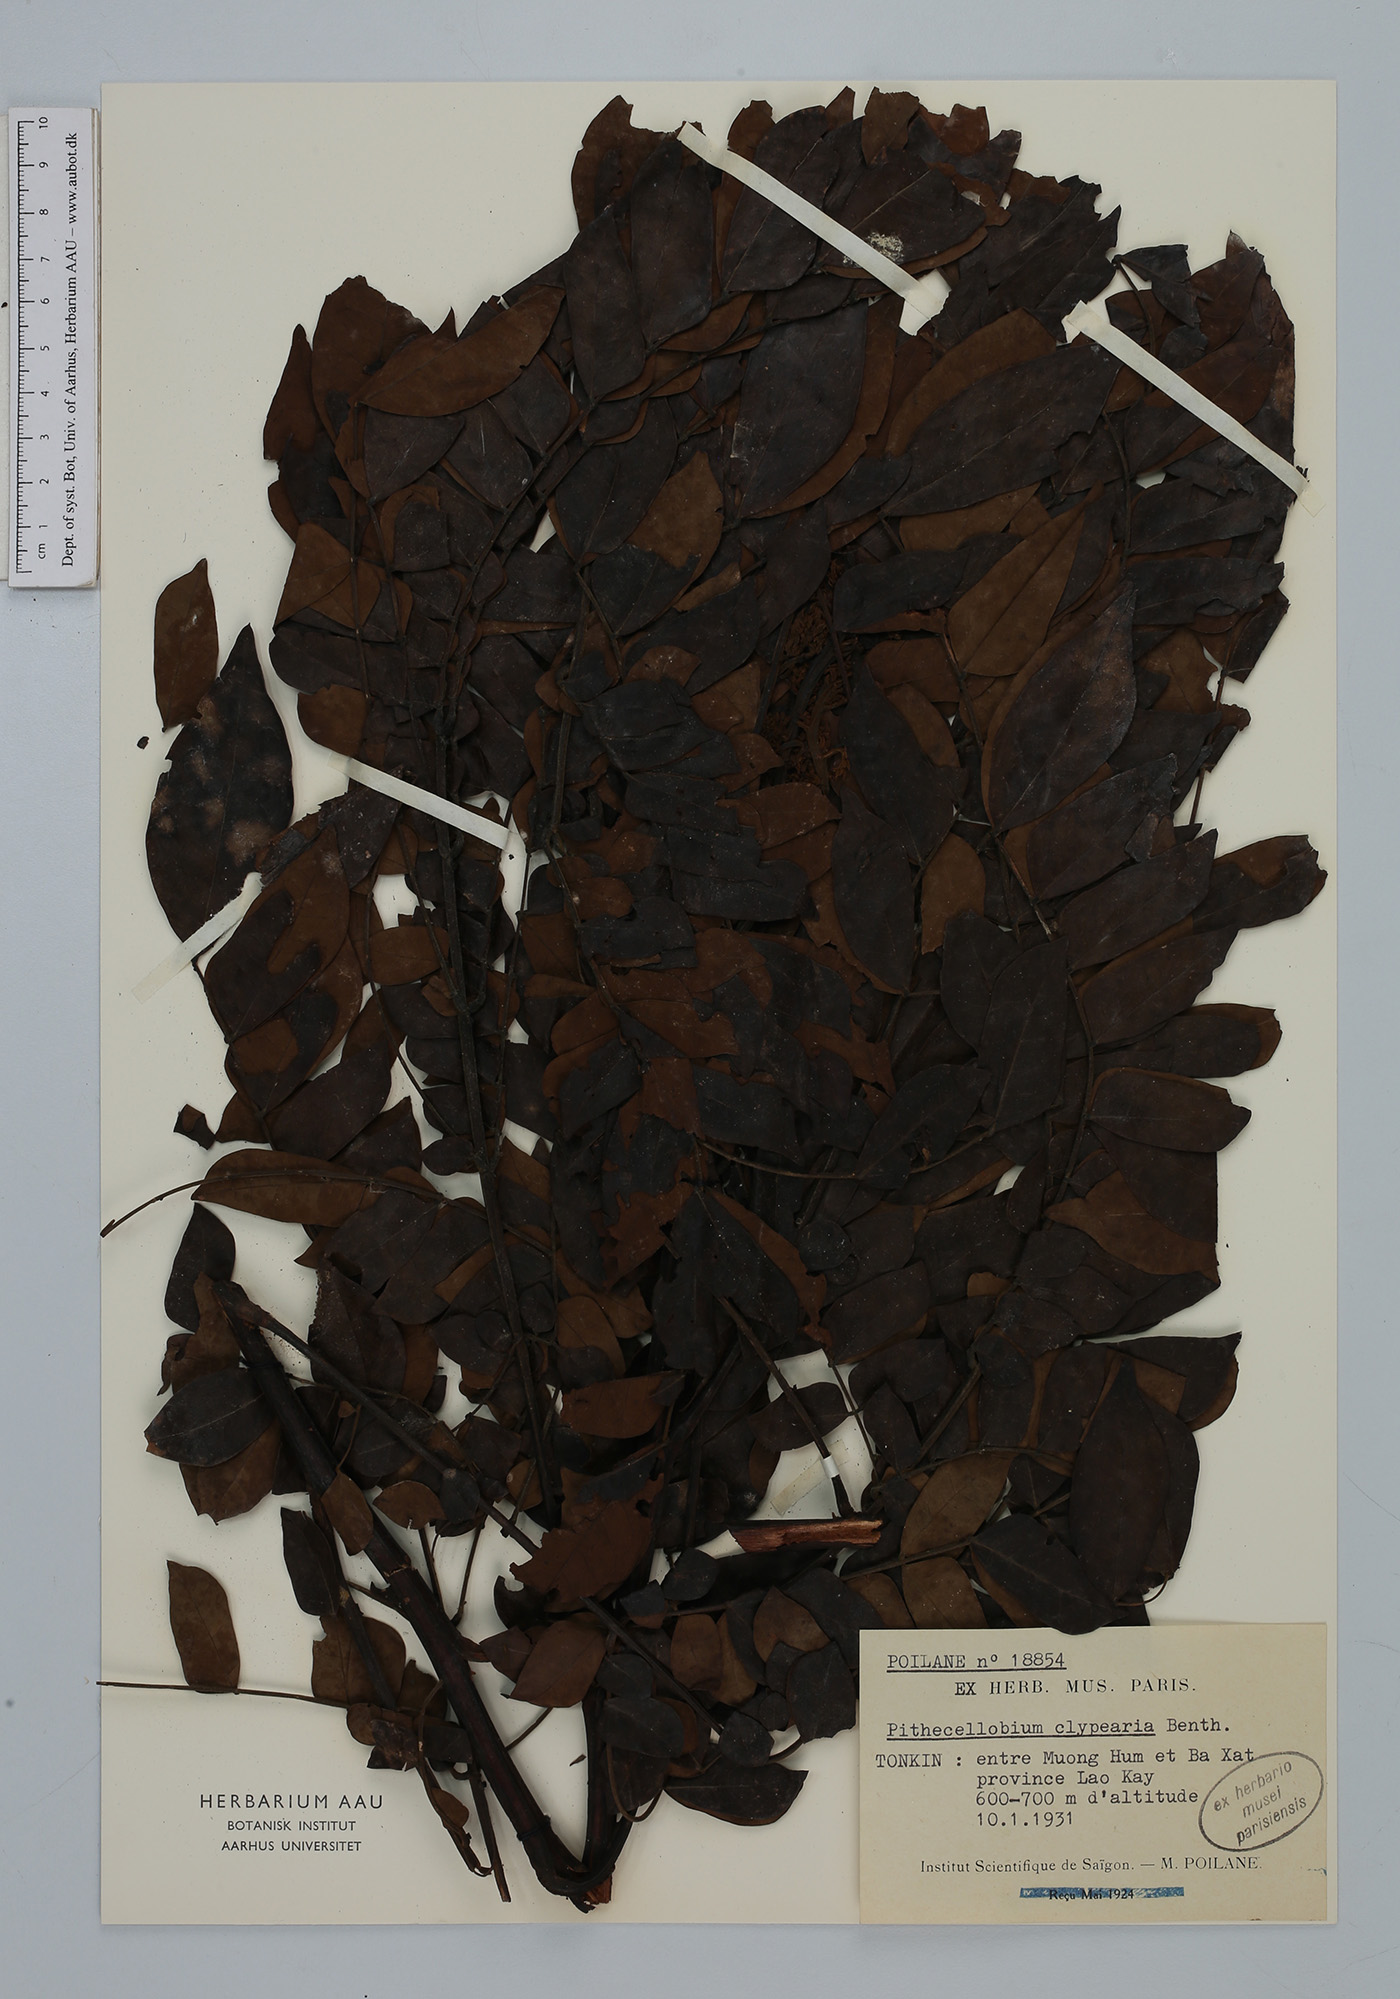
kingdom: Plantae
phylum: Tracheophyta
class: Magnoliopsida
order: Fabales
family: Fabaceae
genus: Archidendron
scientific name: Archidendron clypearia
